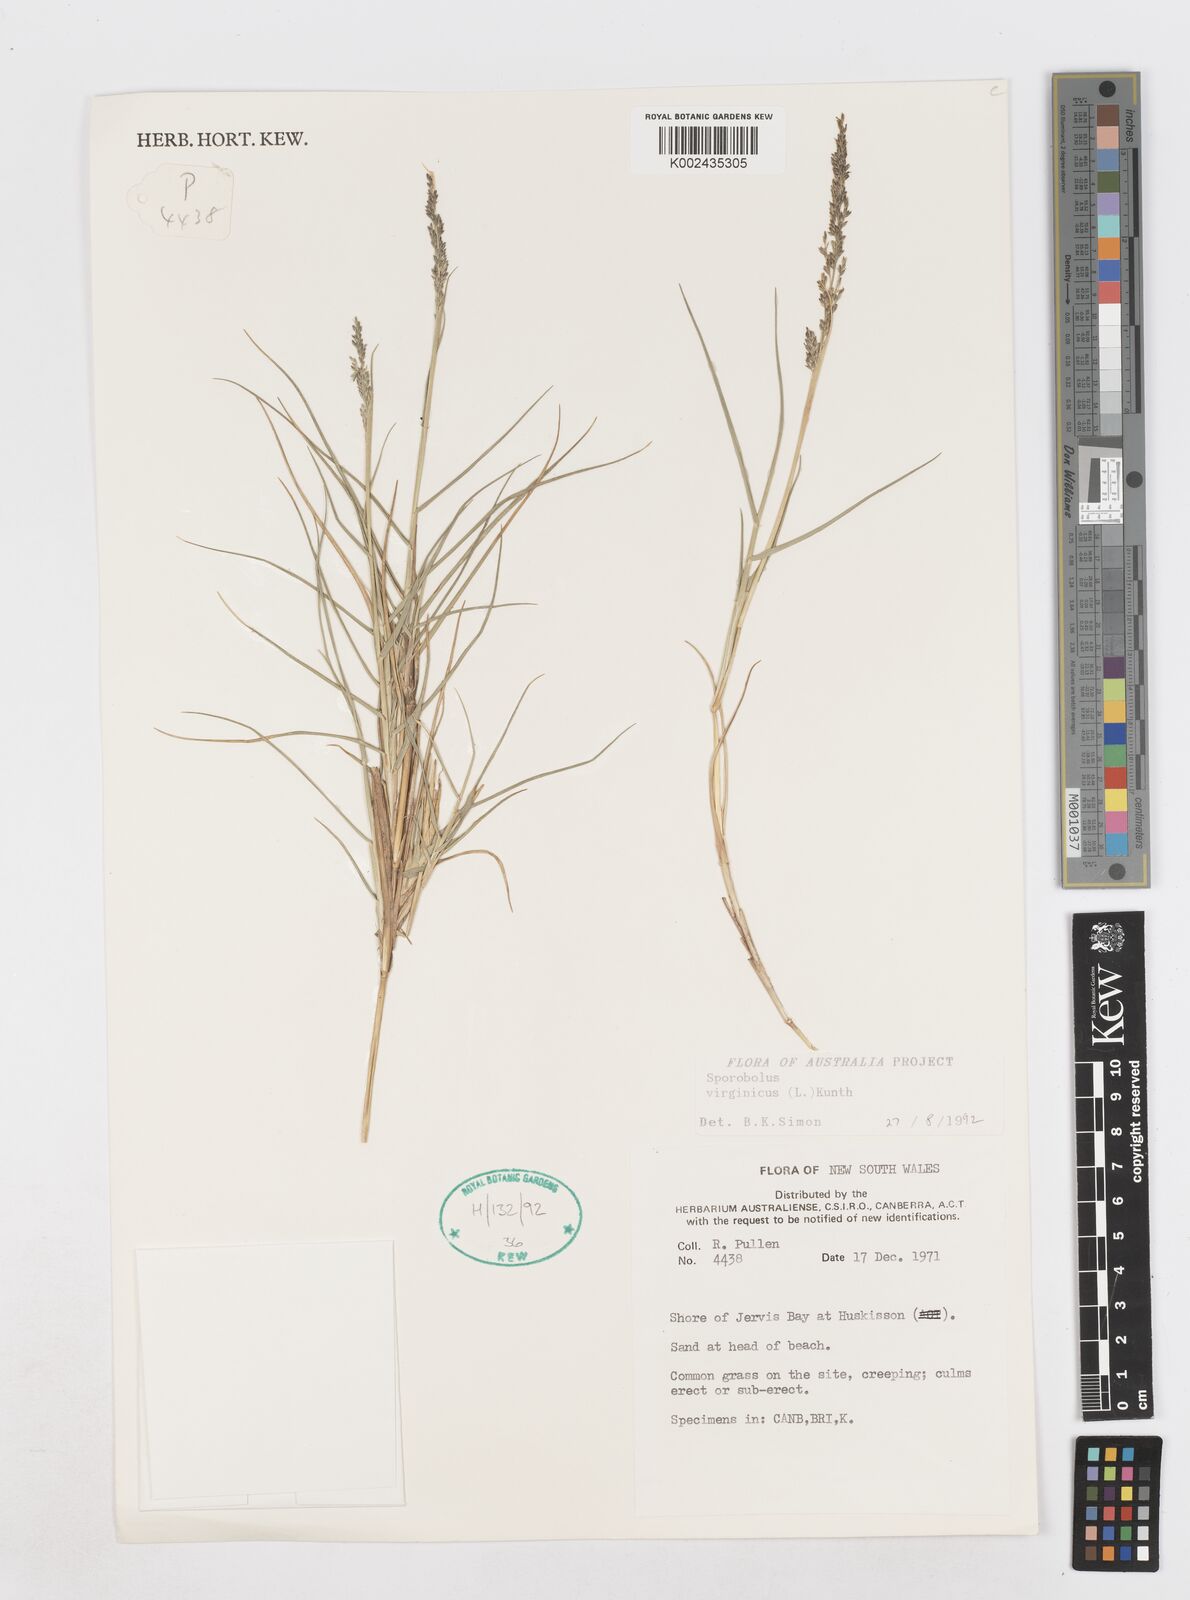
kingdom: Plantae
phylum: Tracheophyta
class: Liliopsida
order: Poales
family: Poaceae
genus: Sporobolus
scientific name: Sporobolus virginicus
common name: Beach dropseed
